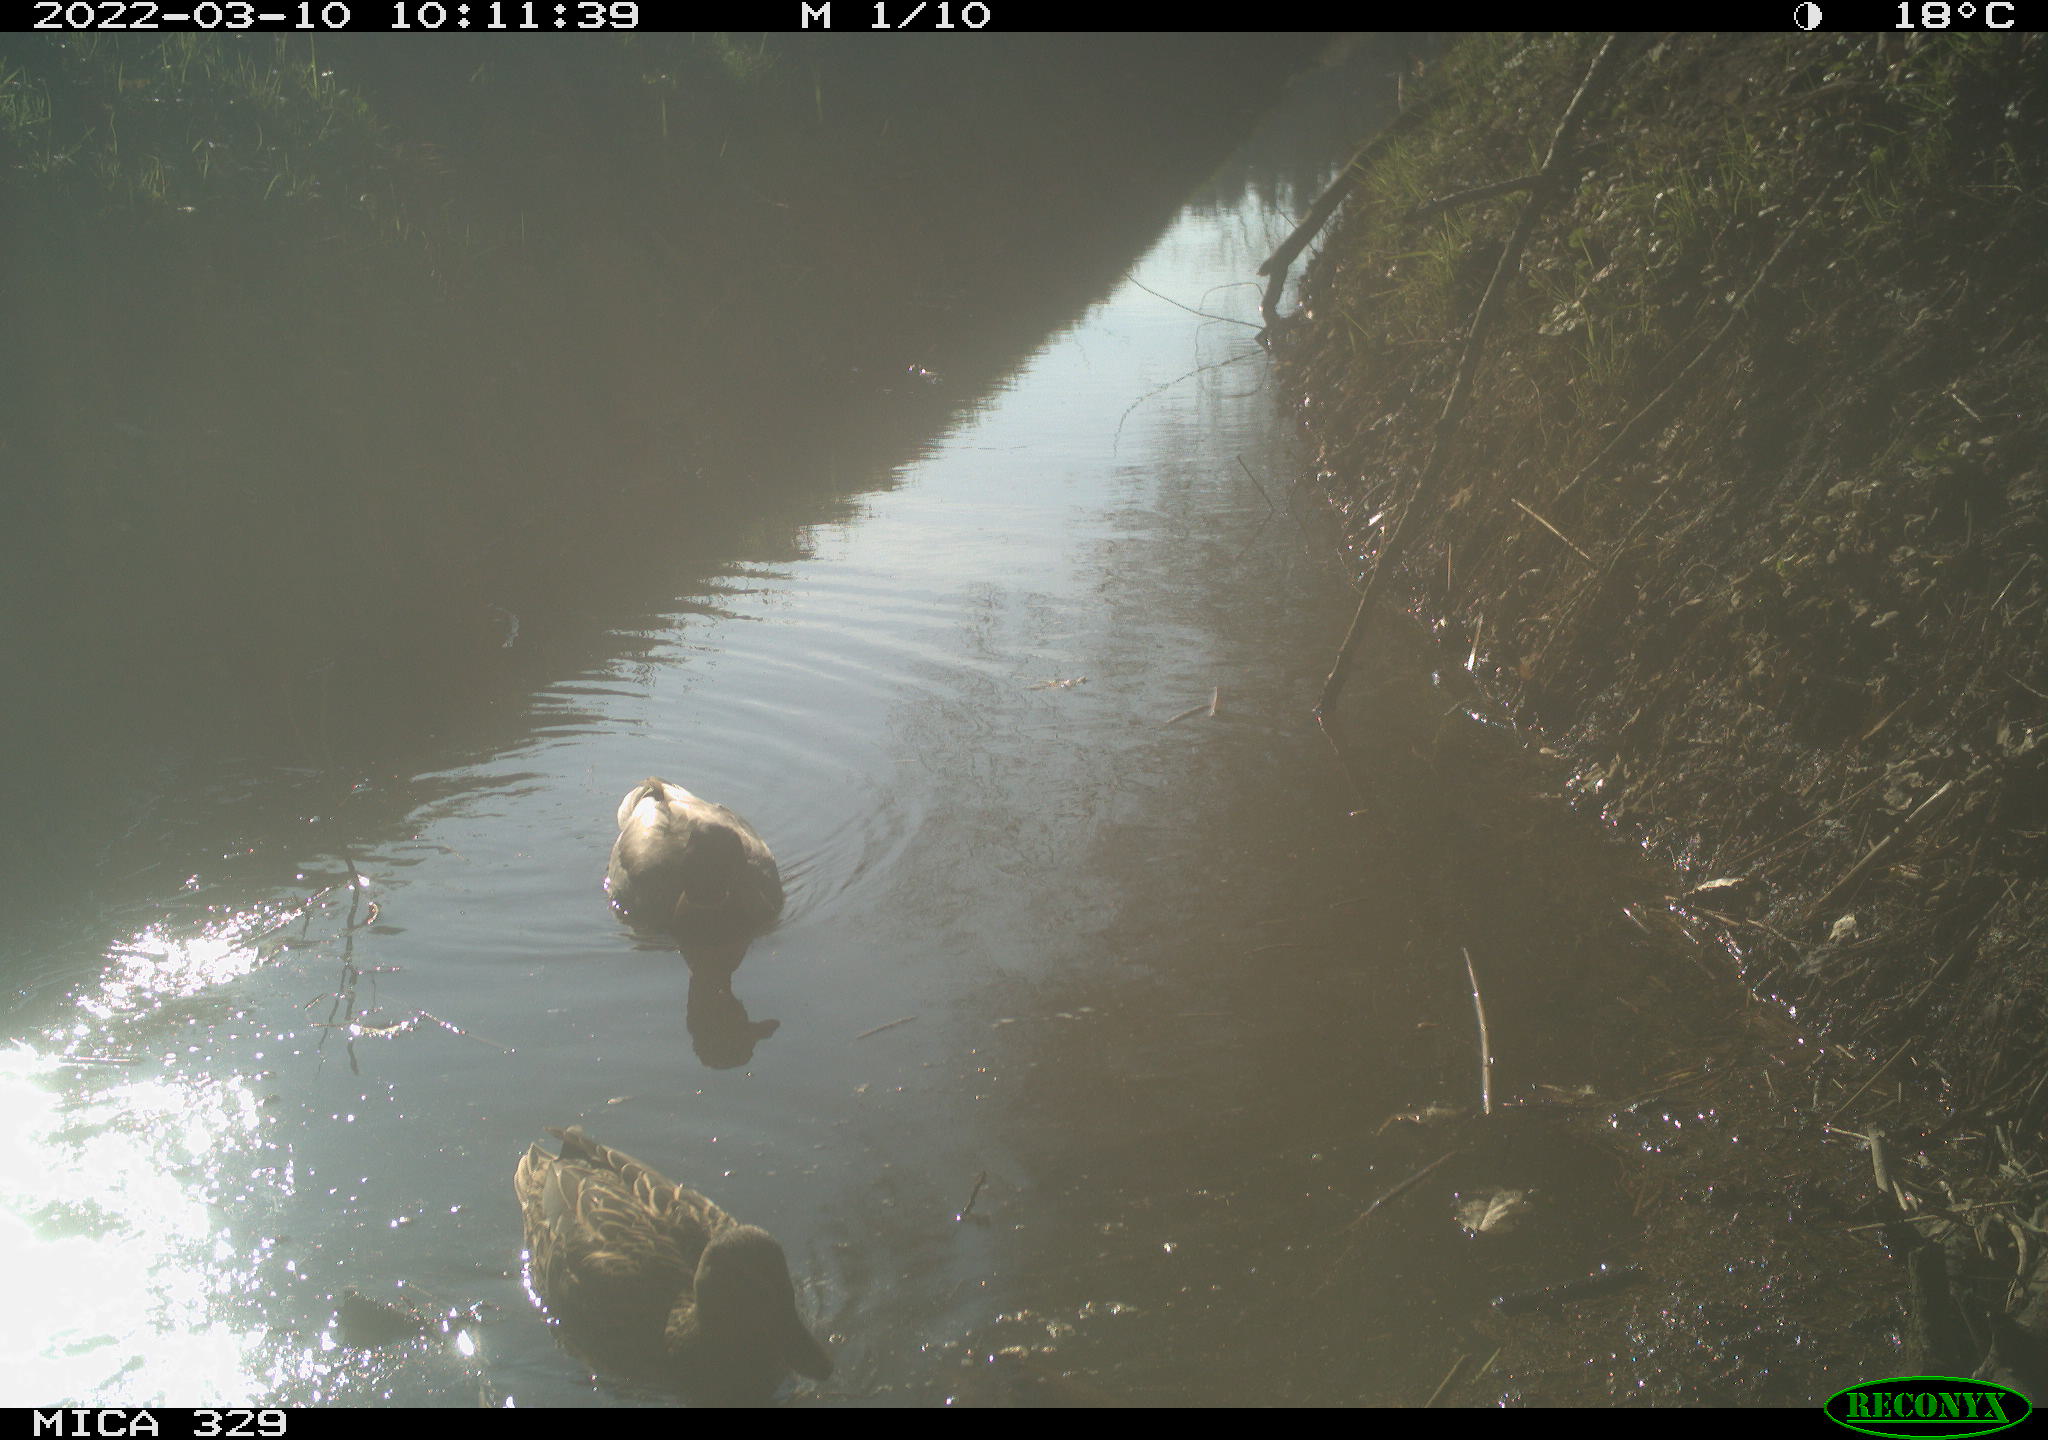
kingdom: Animalia
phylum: Chordata
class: Aves
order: Anseriformes
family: Anatidae
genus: Anas
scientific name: Anas platyrhynchos
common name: Mallard
